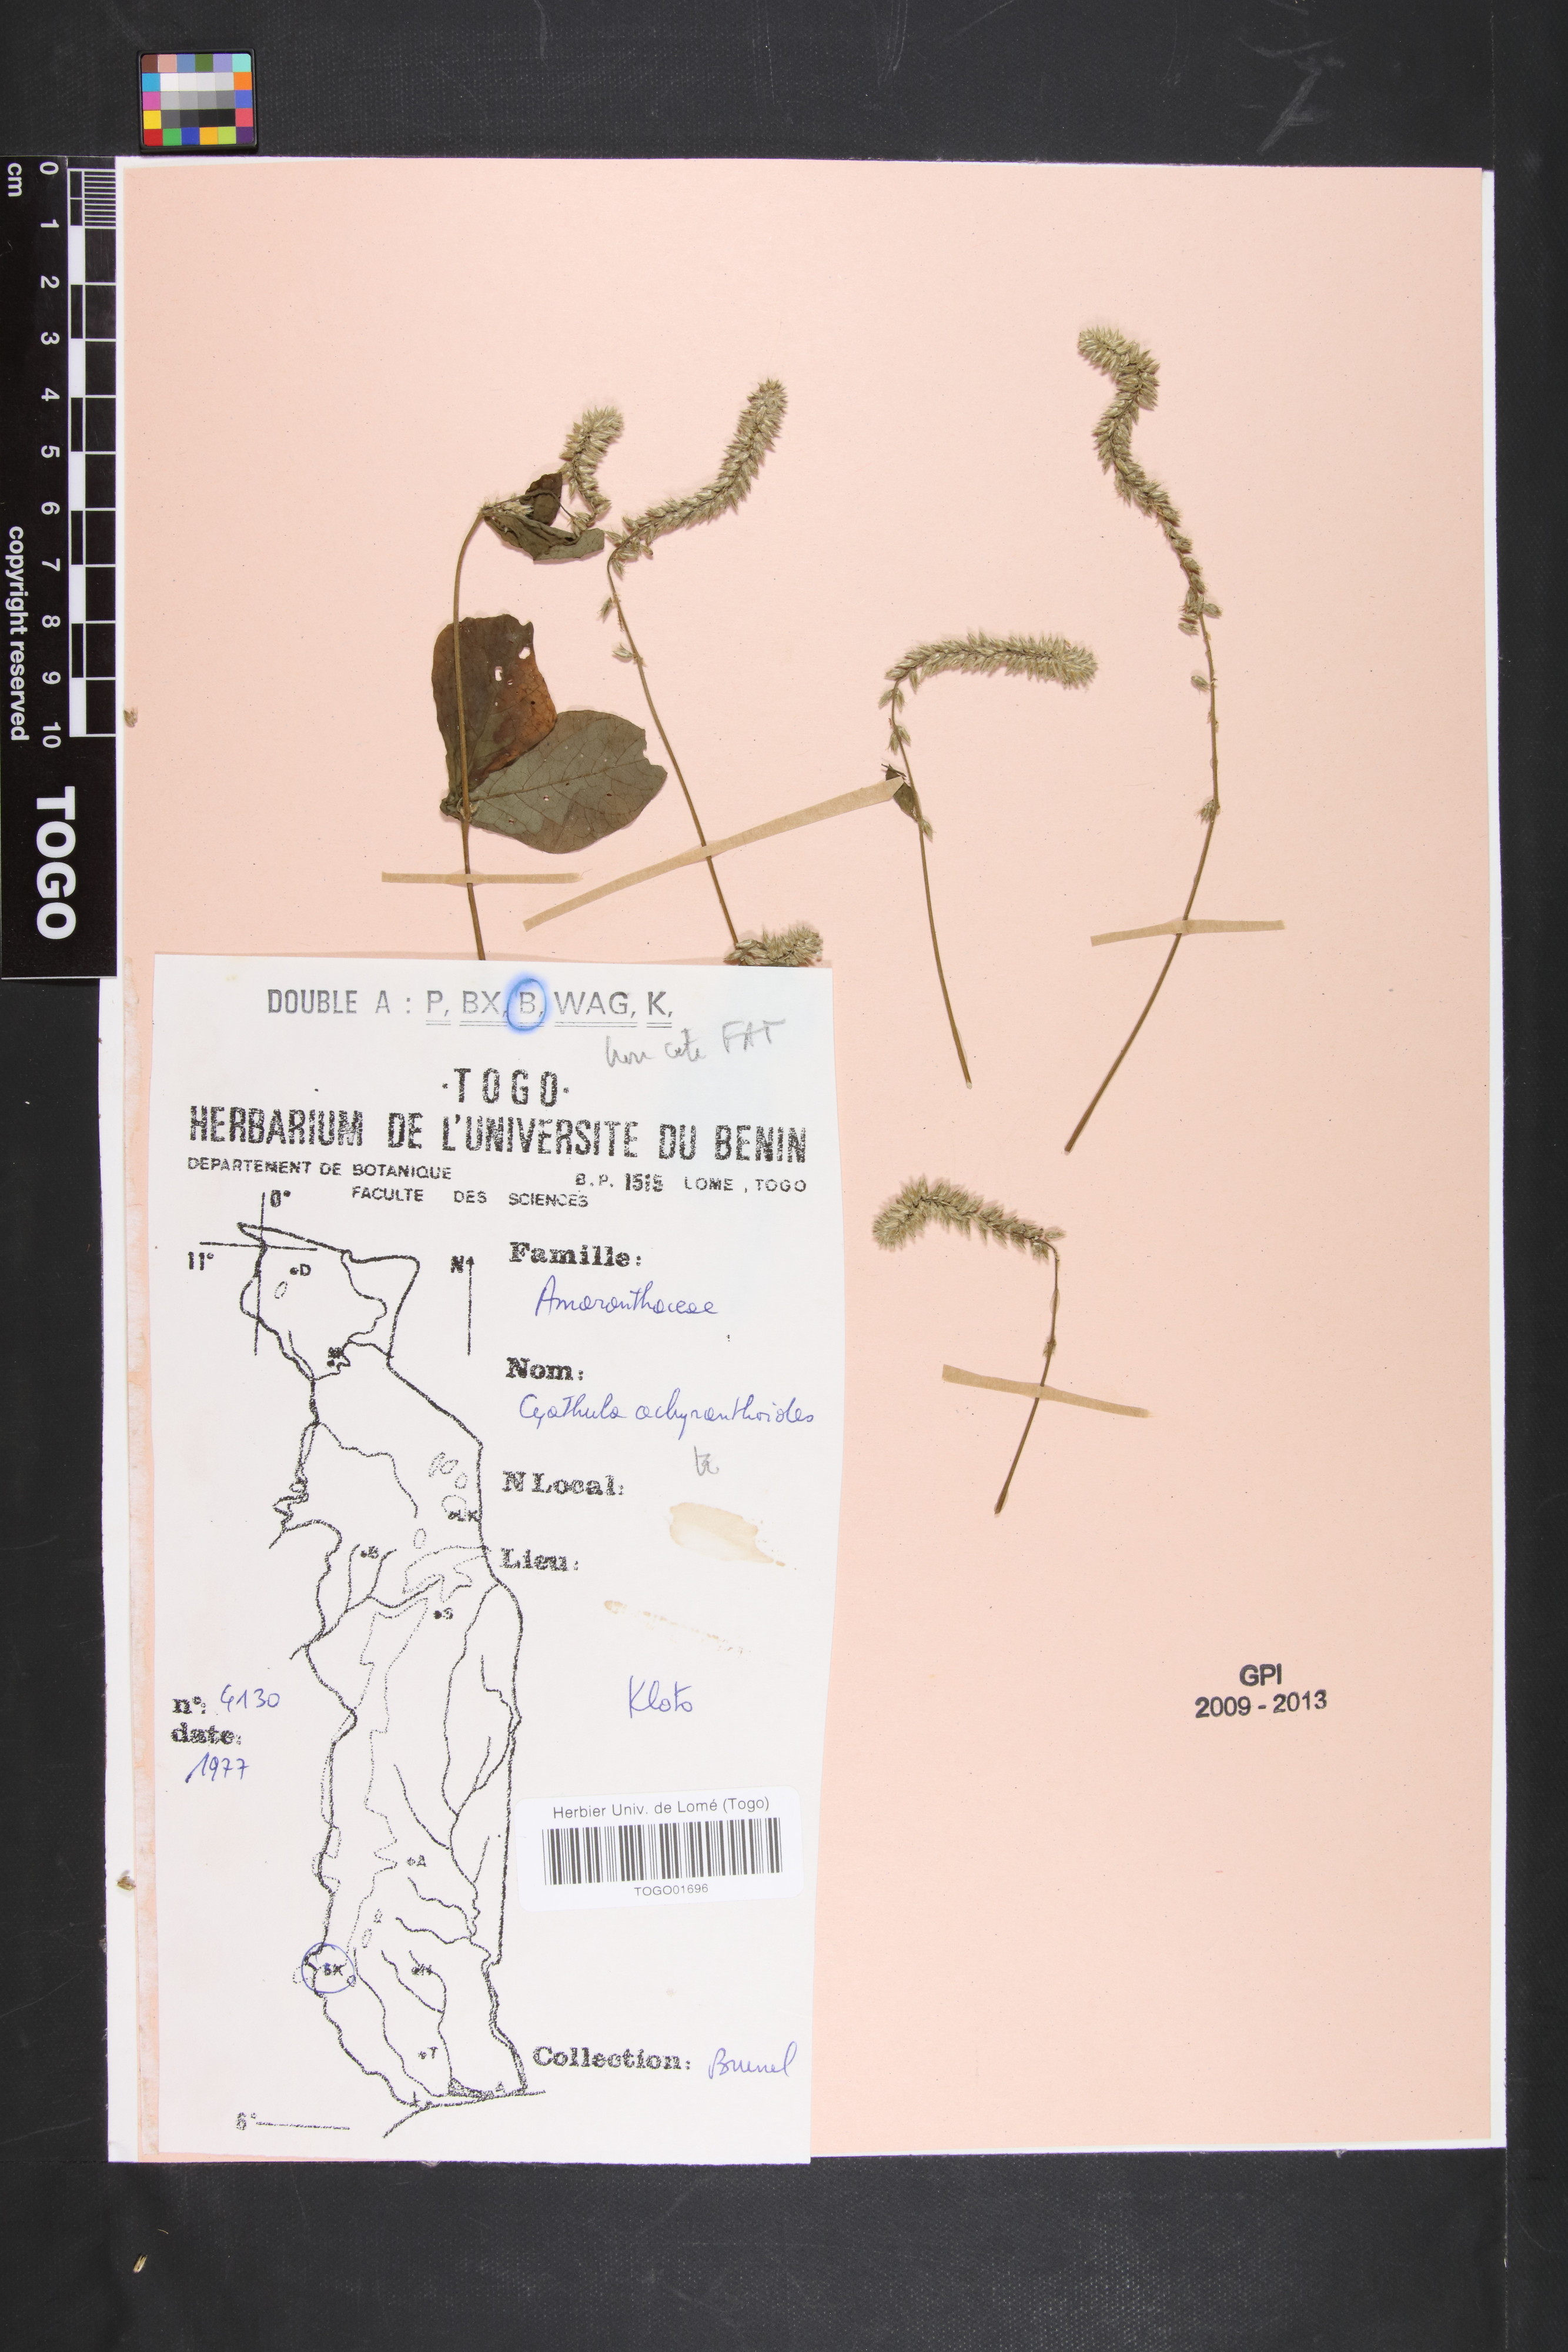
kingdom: Plantae
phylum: Tracheophyta
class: Magnoliopsida
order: Caryophyllales
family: Amaranthaceae
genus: Cyathula
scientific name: Cyathula achyranthoides
